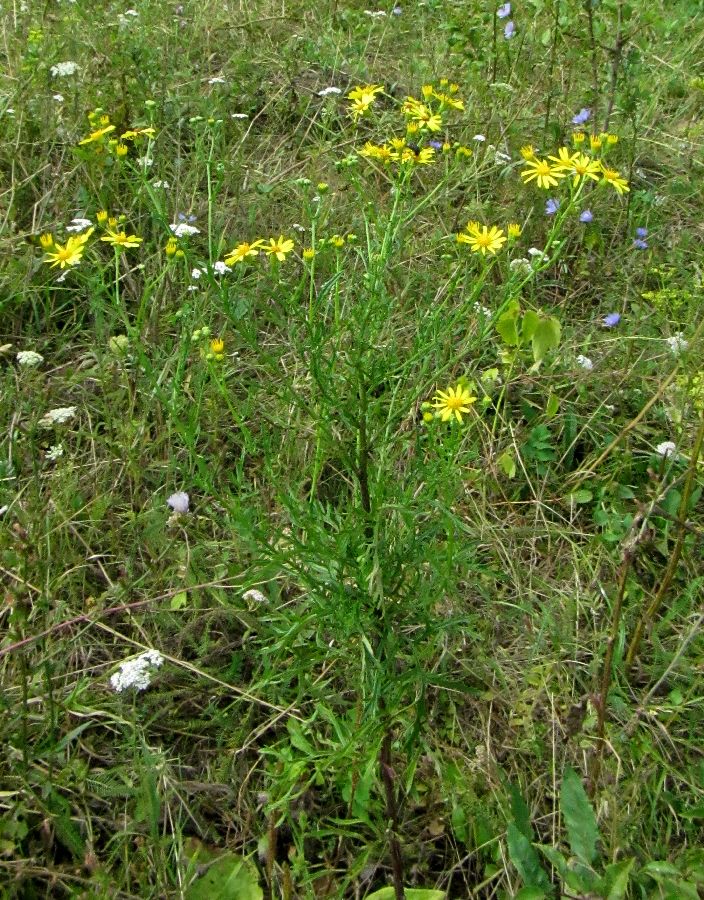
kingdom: Plantae
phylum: Tracheophyta
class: Magnoliopsida
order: Asterales
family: Asteraceae
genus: Jacobaea
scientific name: Jacobaea erucifolia
